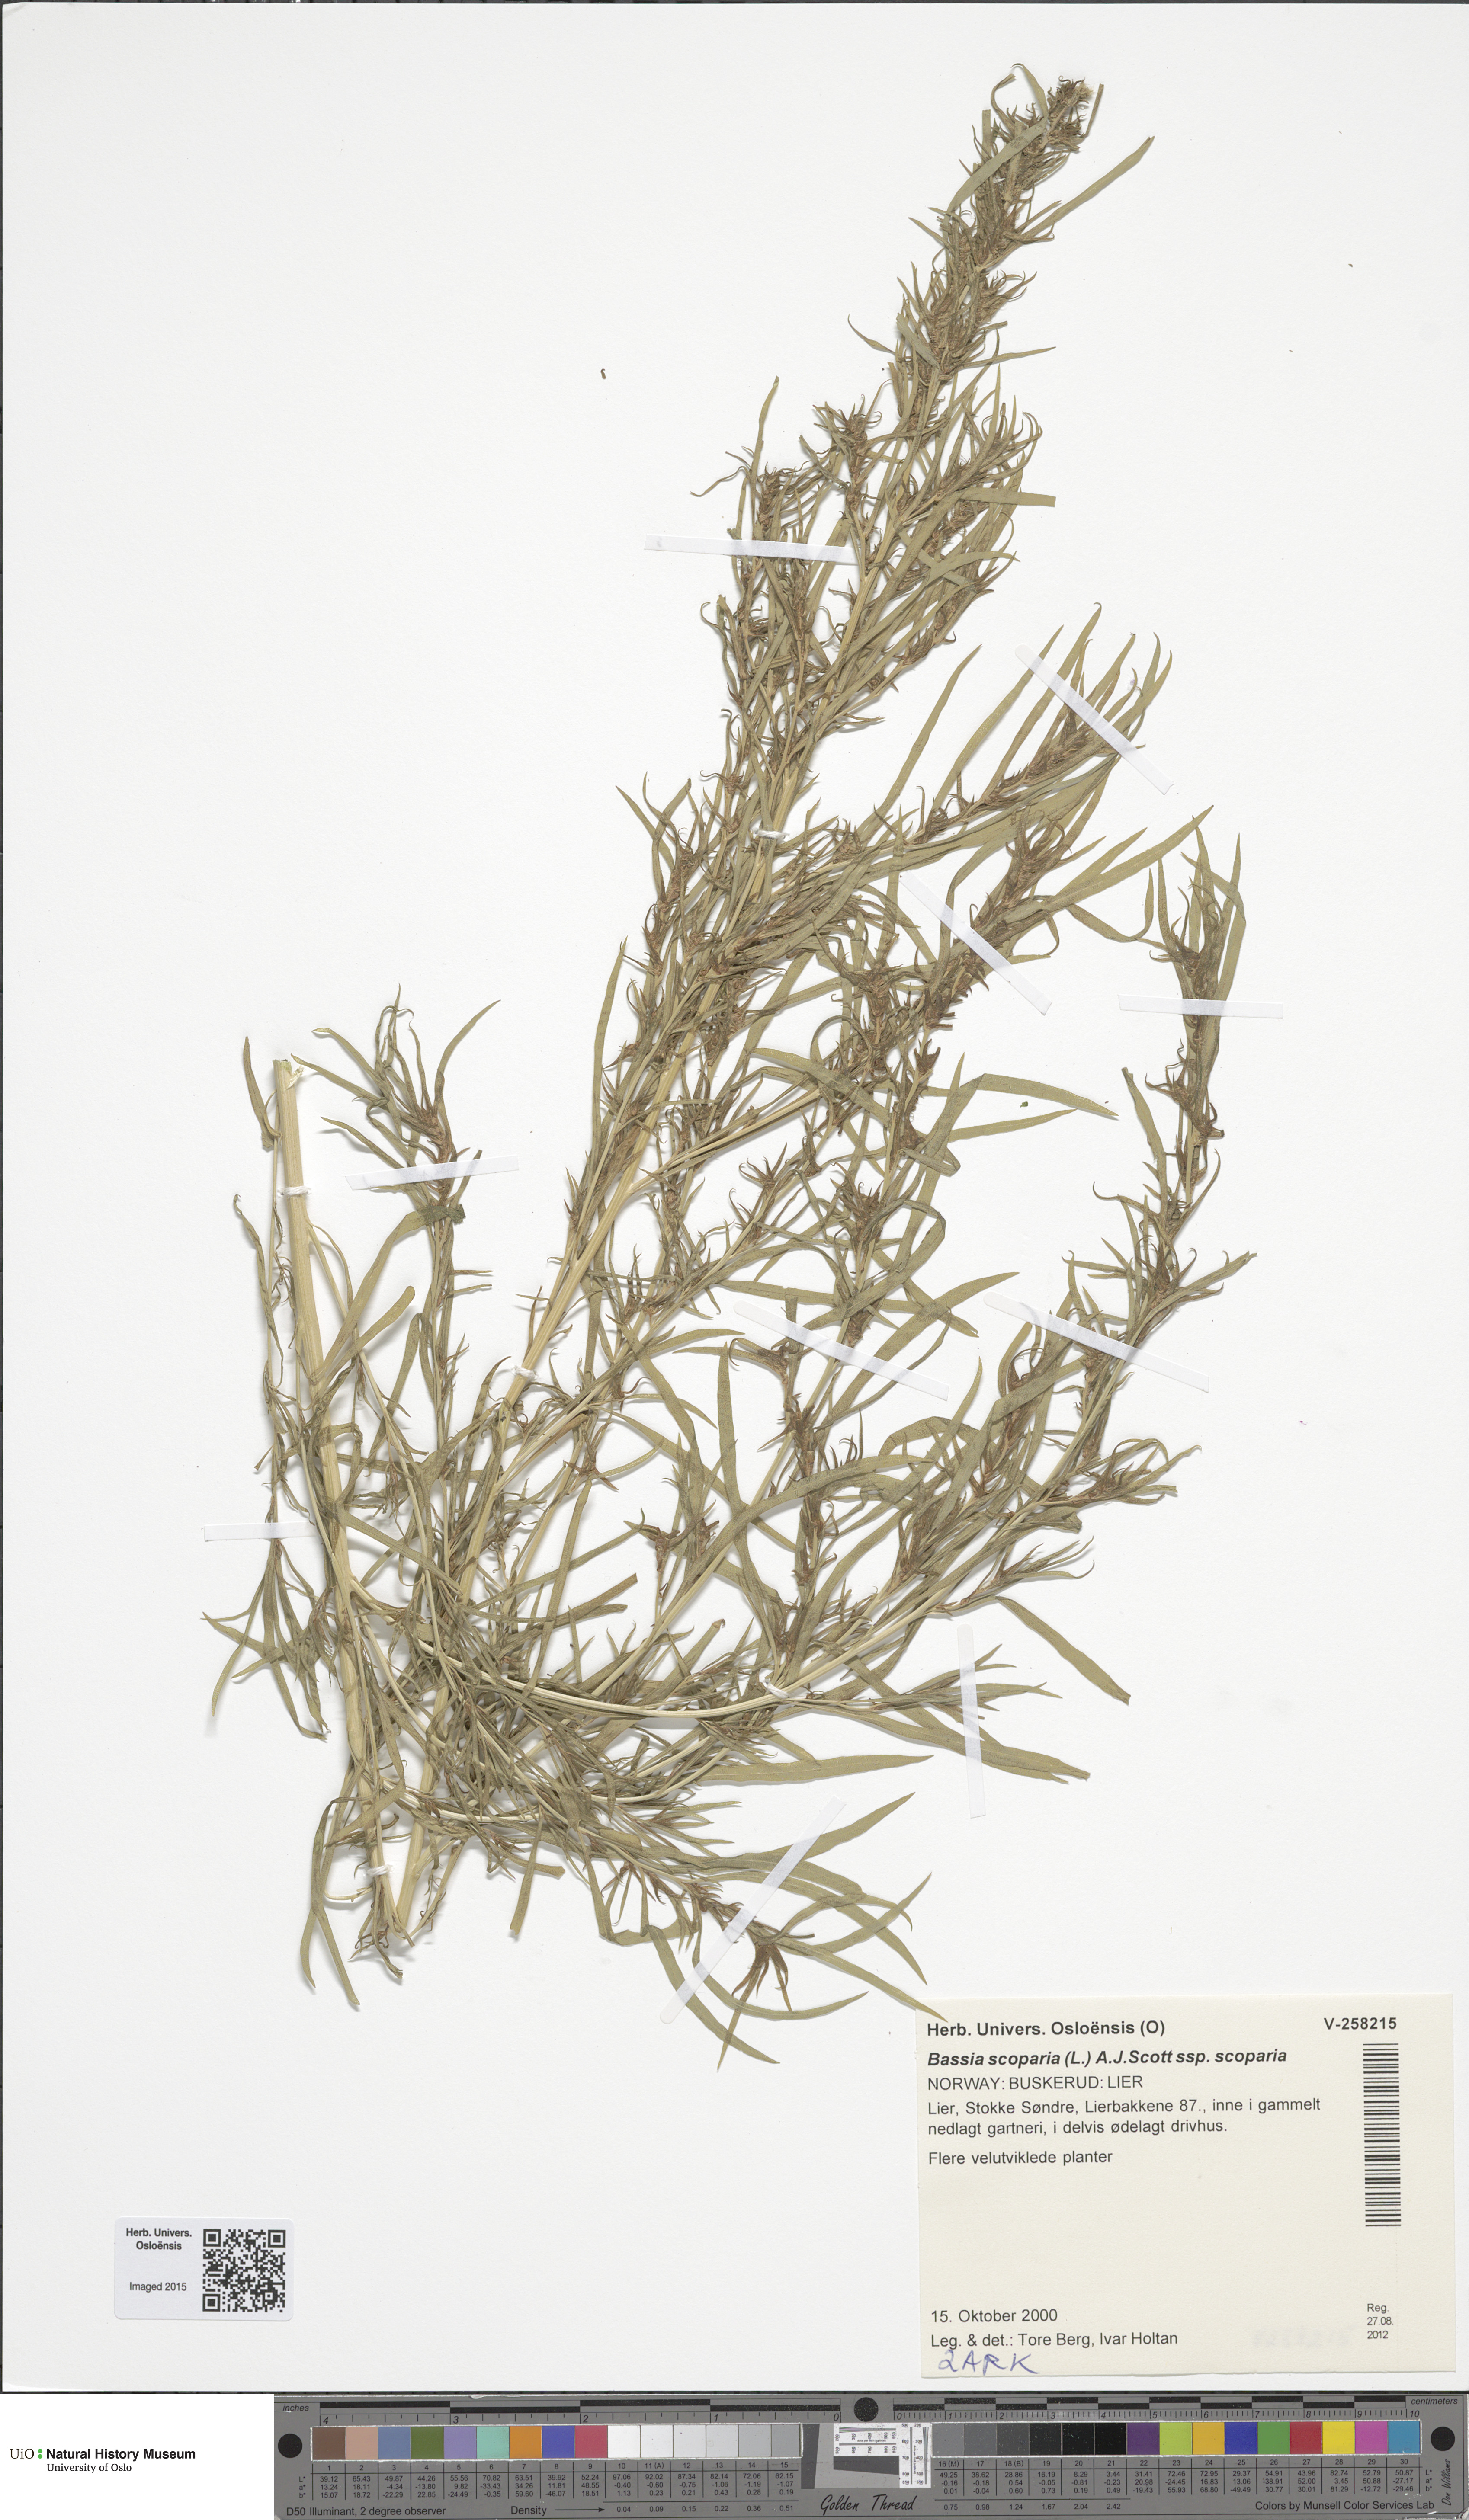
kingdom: Plantae
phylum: Tracheophyta
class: Magnoliopsida
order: Caryophyllales
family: Amaranthaceae
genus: Bassia
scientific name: Bassia scoparia
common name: Belvedere
